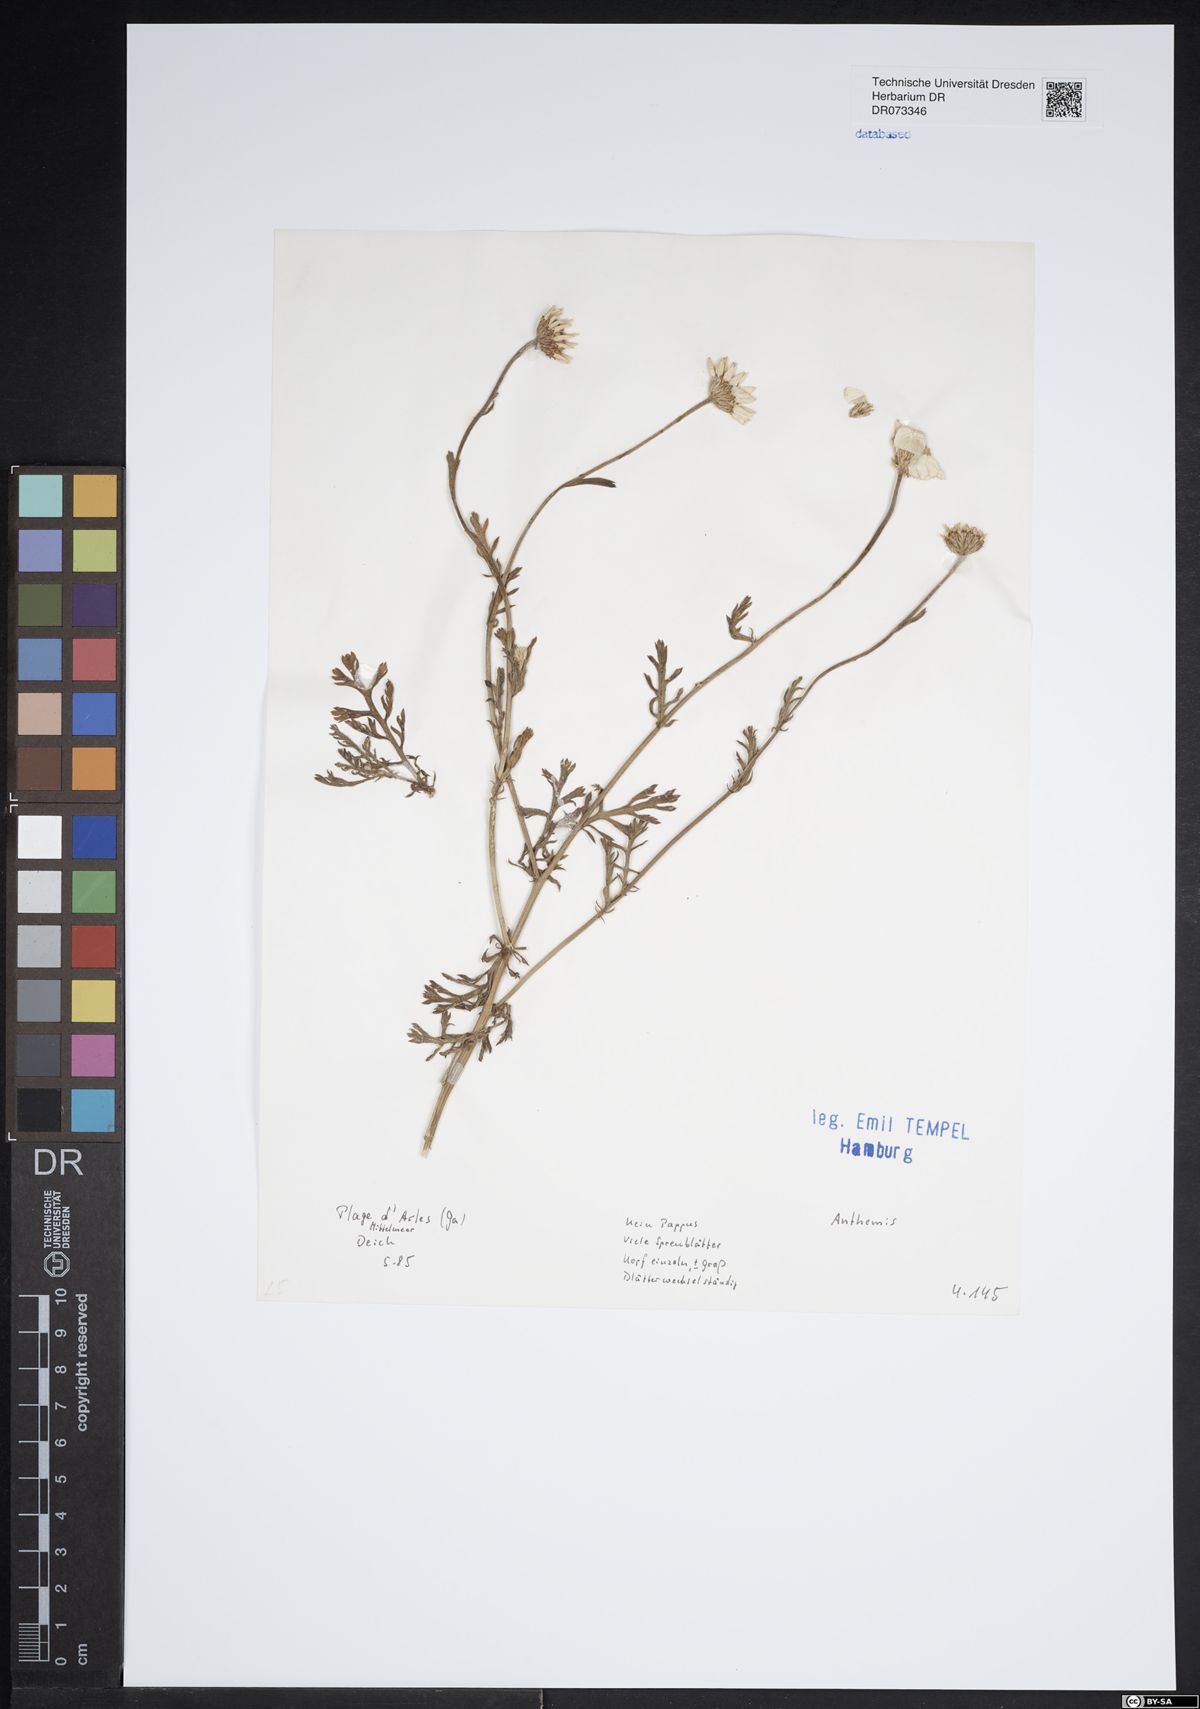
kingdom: Plantae
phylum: Tracheophyta
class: Magnoliopsida
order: Asterales
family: Asteraceae
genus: Anthemis
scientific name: Anthemis
